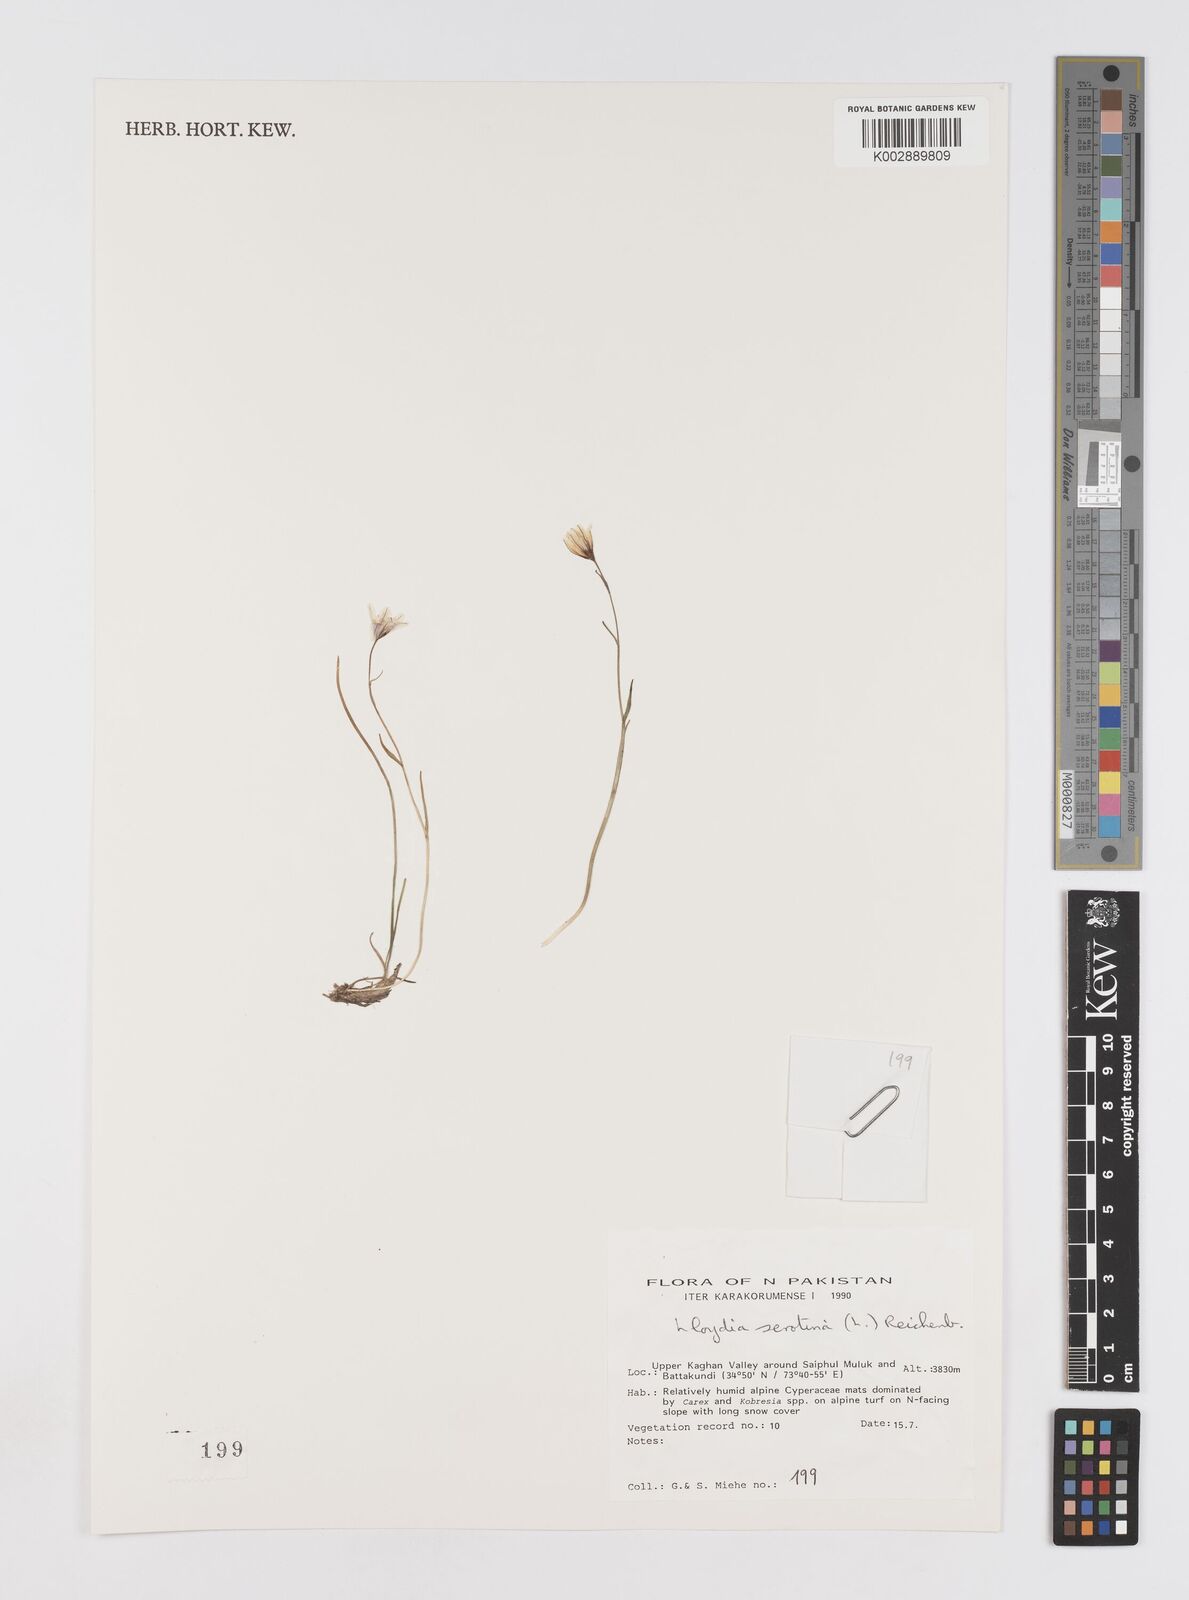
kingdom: Plantae
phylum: Tracheophyta
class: Liliopsida
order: Liliales
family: Liliaceae
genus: Gagea
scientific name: Gagea serotina
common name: Snowdon lily
